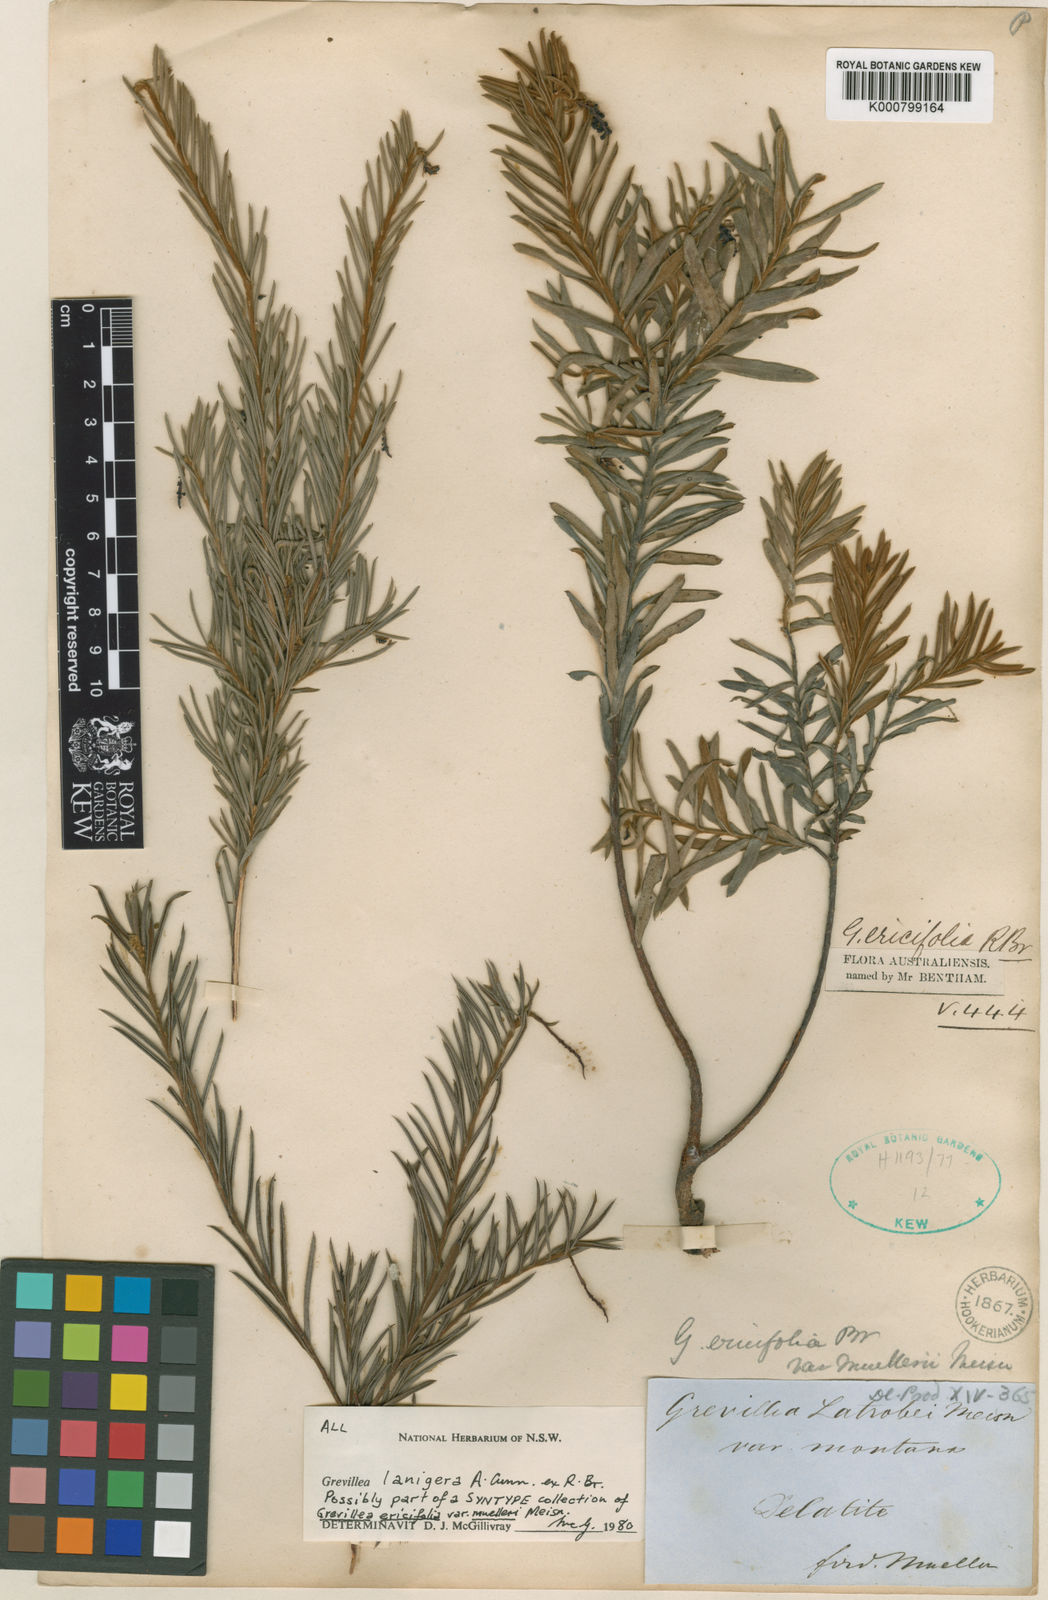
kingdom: Plantae
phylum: Tracheophyta
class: Magnoliopsida
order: Proteales
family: Proteaceae
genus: Grevillea
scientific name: Grevillea lanigera
